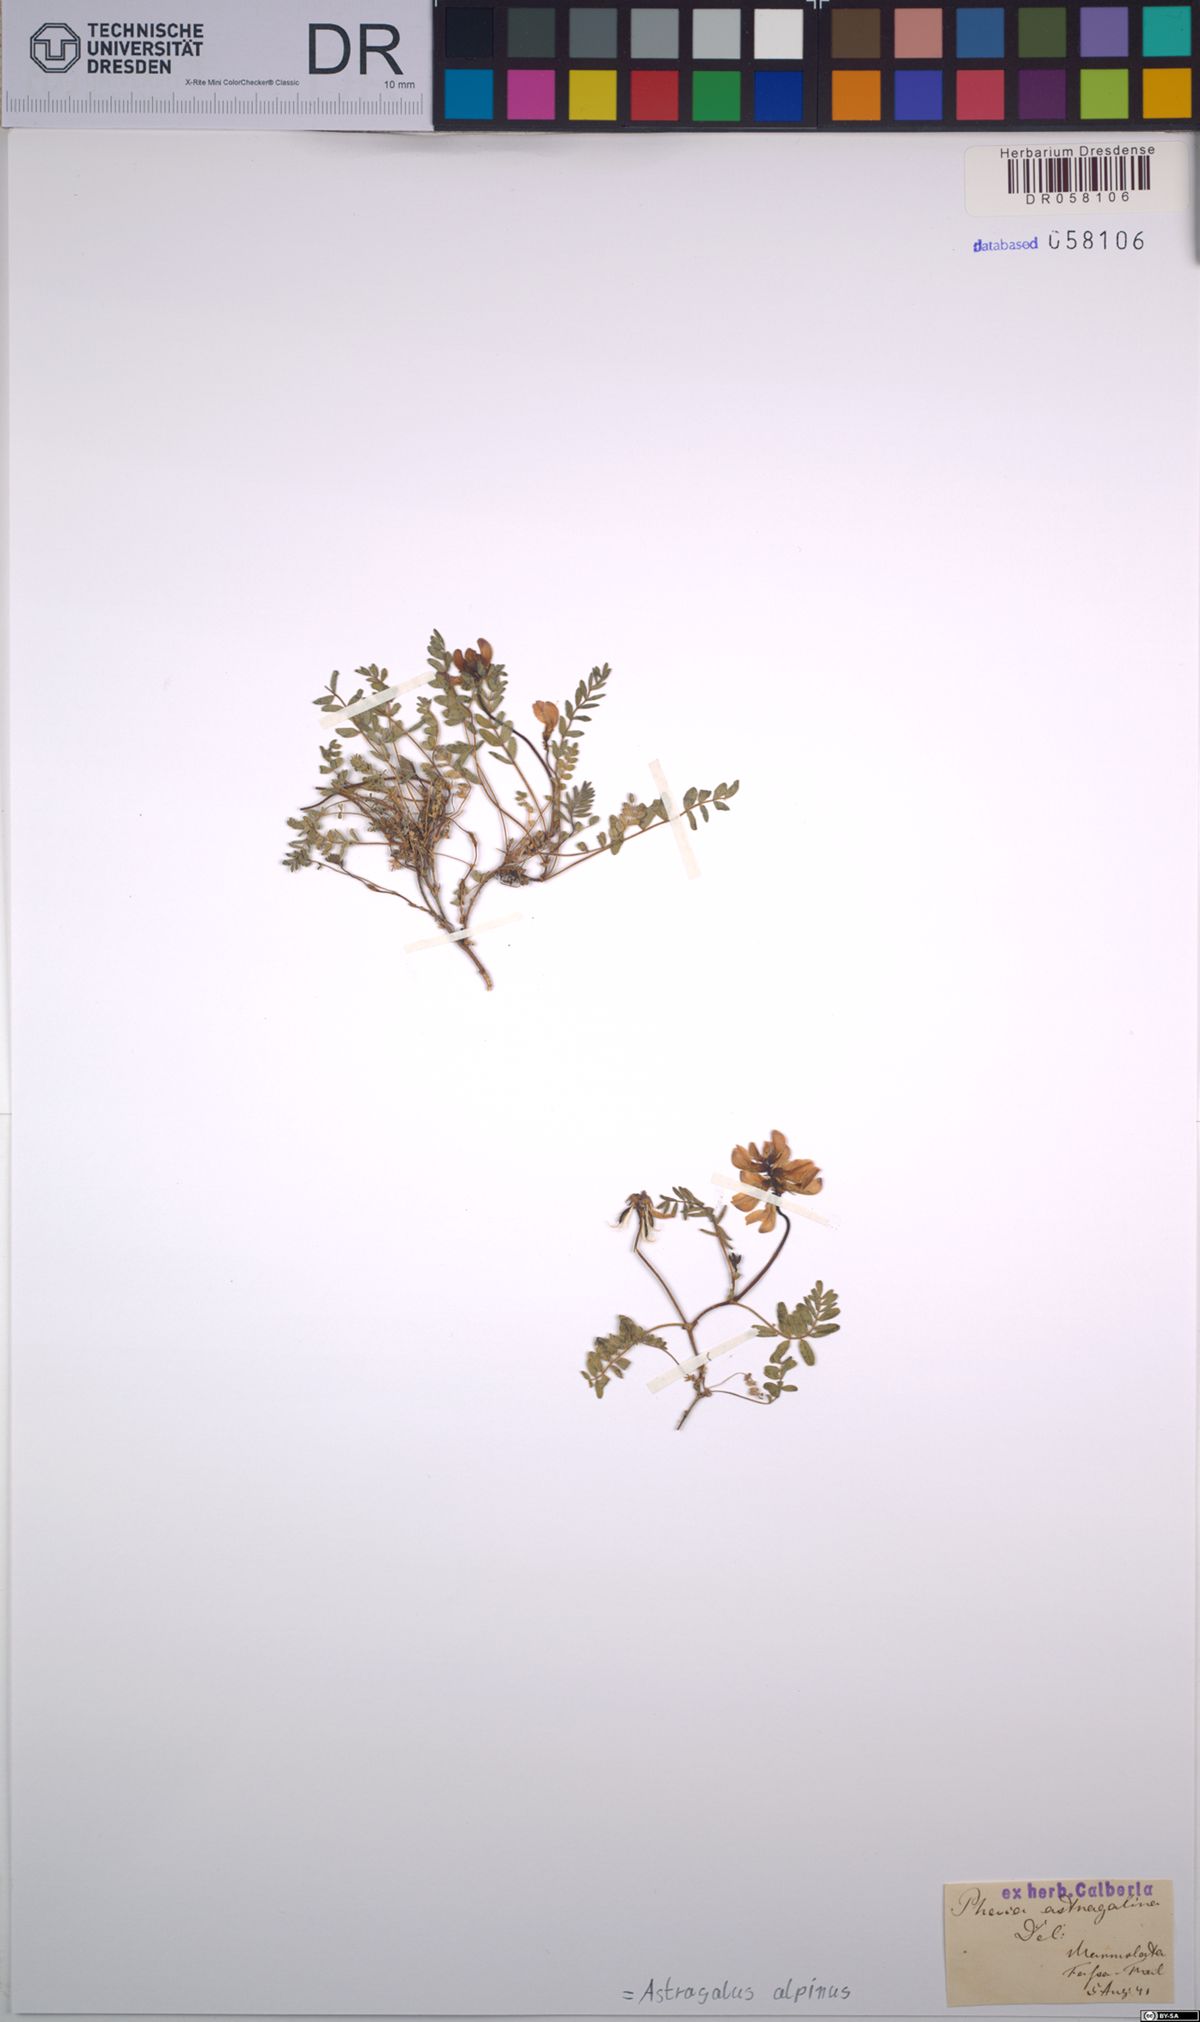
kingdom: Plantae
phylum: Tracheophyta
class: Magnoliopsida
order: Fabales
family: Fabaceae
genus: Astragalus
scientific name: Astragalus alpinus
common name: Alpine milk-vetch
